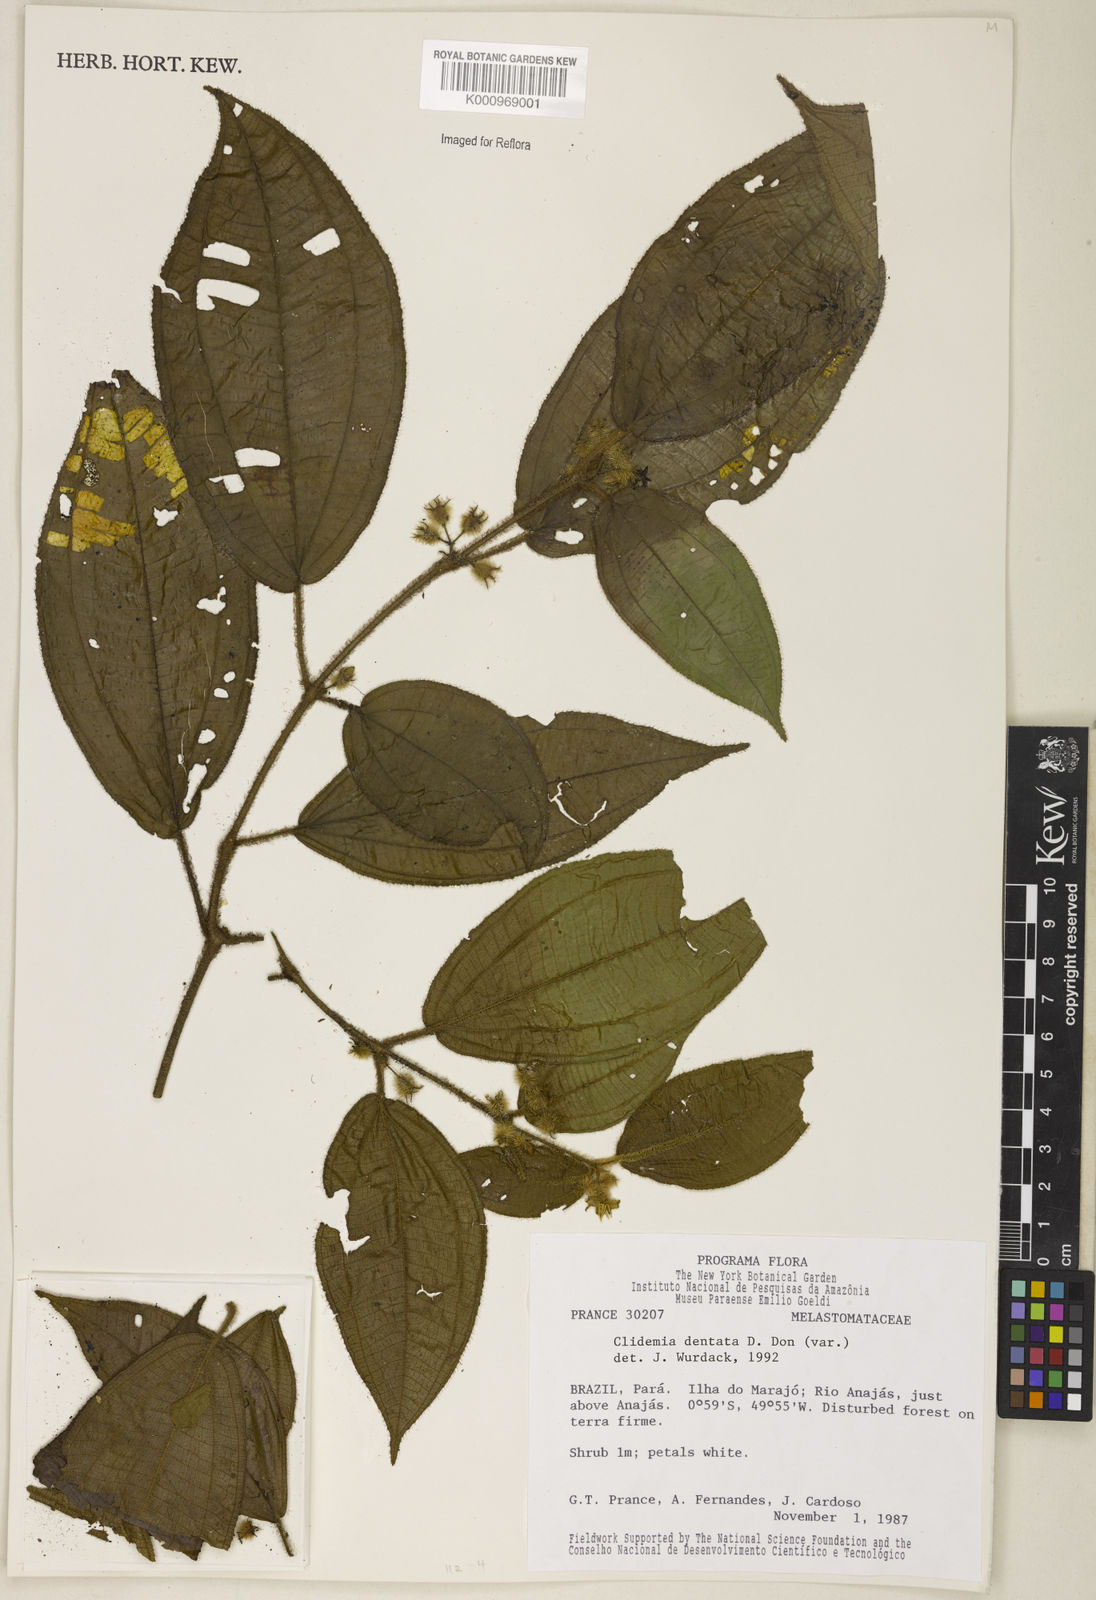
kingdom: Plantae
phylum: Tracheophyta
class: Magnoliopsida
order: Myrtales
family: Melastomataceae
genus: Miconia
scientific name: Miconia dentata
